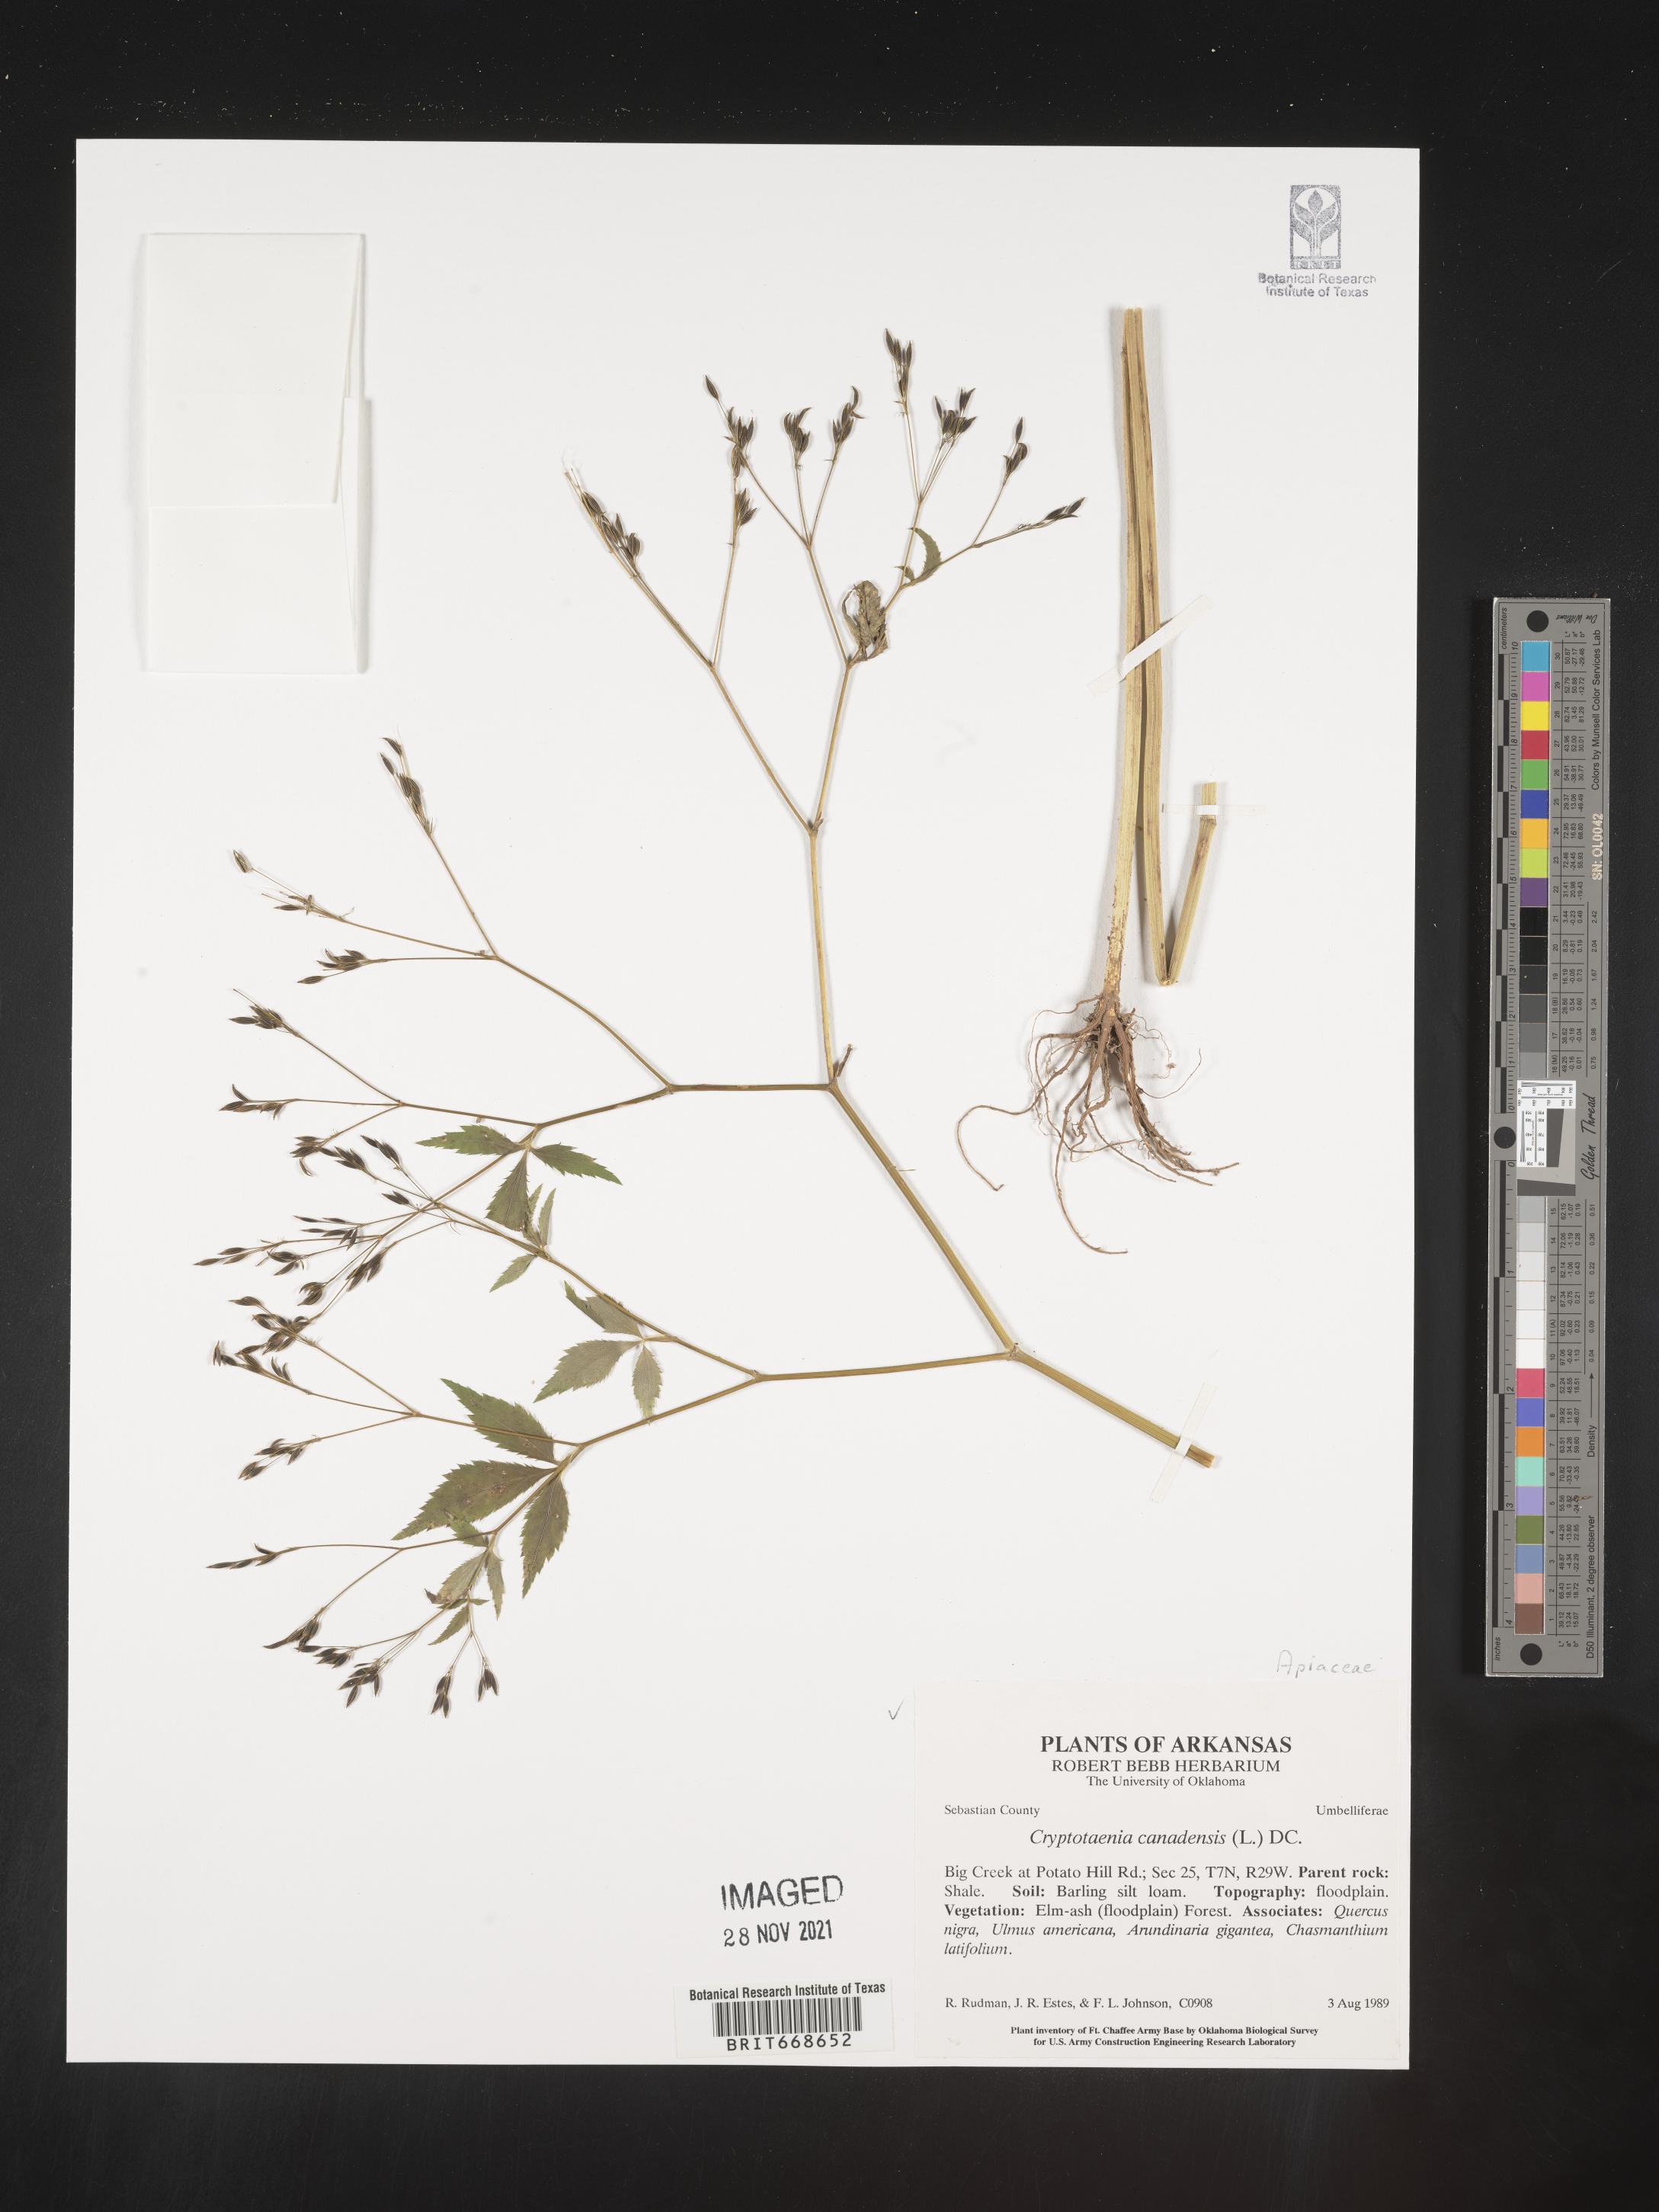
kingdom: Plantae
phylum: Tracheophyta
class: Magnoliopsida
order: Apiales
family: Apiaceae
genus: Cryptotaenia
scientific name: Cryptotaenia canadensis
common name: Honewort
